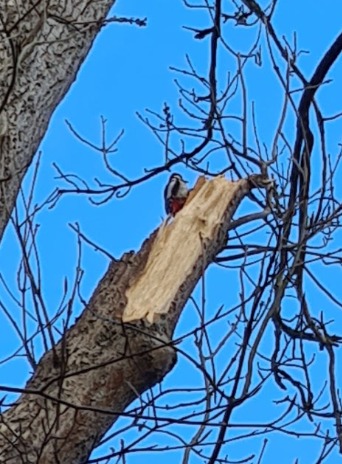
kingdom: Animalia
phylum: Chordata
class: Aves
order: Piciformes
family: Picidae
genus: Dendrocopos
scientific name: Dendrocopos major
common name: Stor flagspætte
